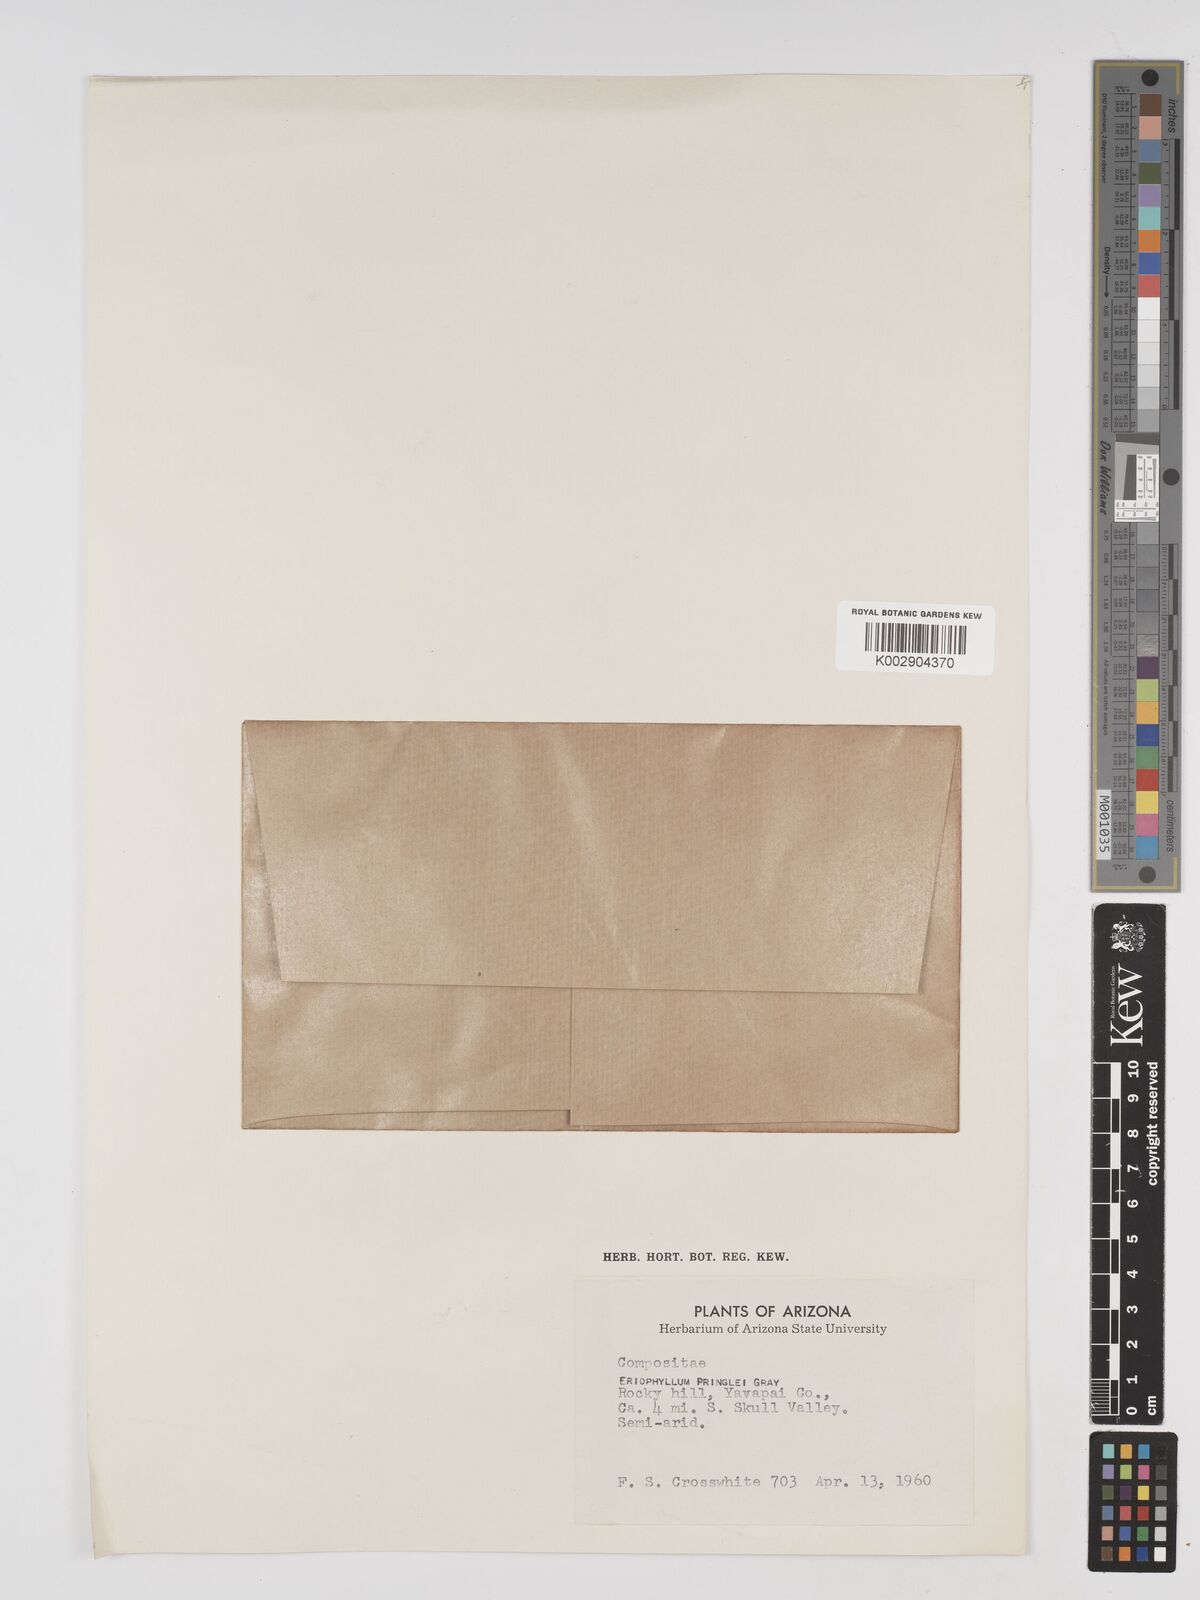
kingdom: Plantae
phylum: Tracheophyta
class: Magnoliopsida
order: Asterales
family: Asteraceae
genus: Eriophyllum
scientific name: Eriophyllum pringlei
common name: Pringle's woolly-sunflower
